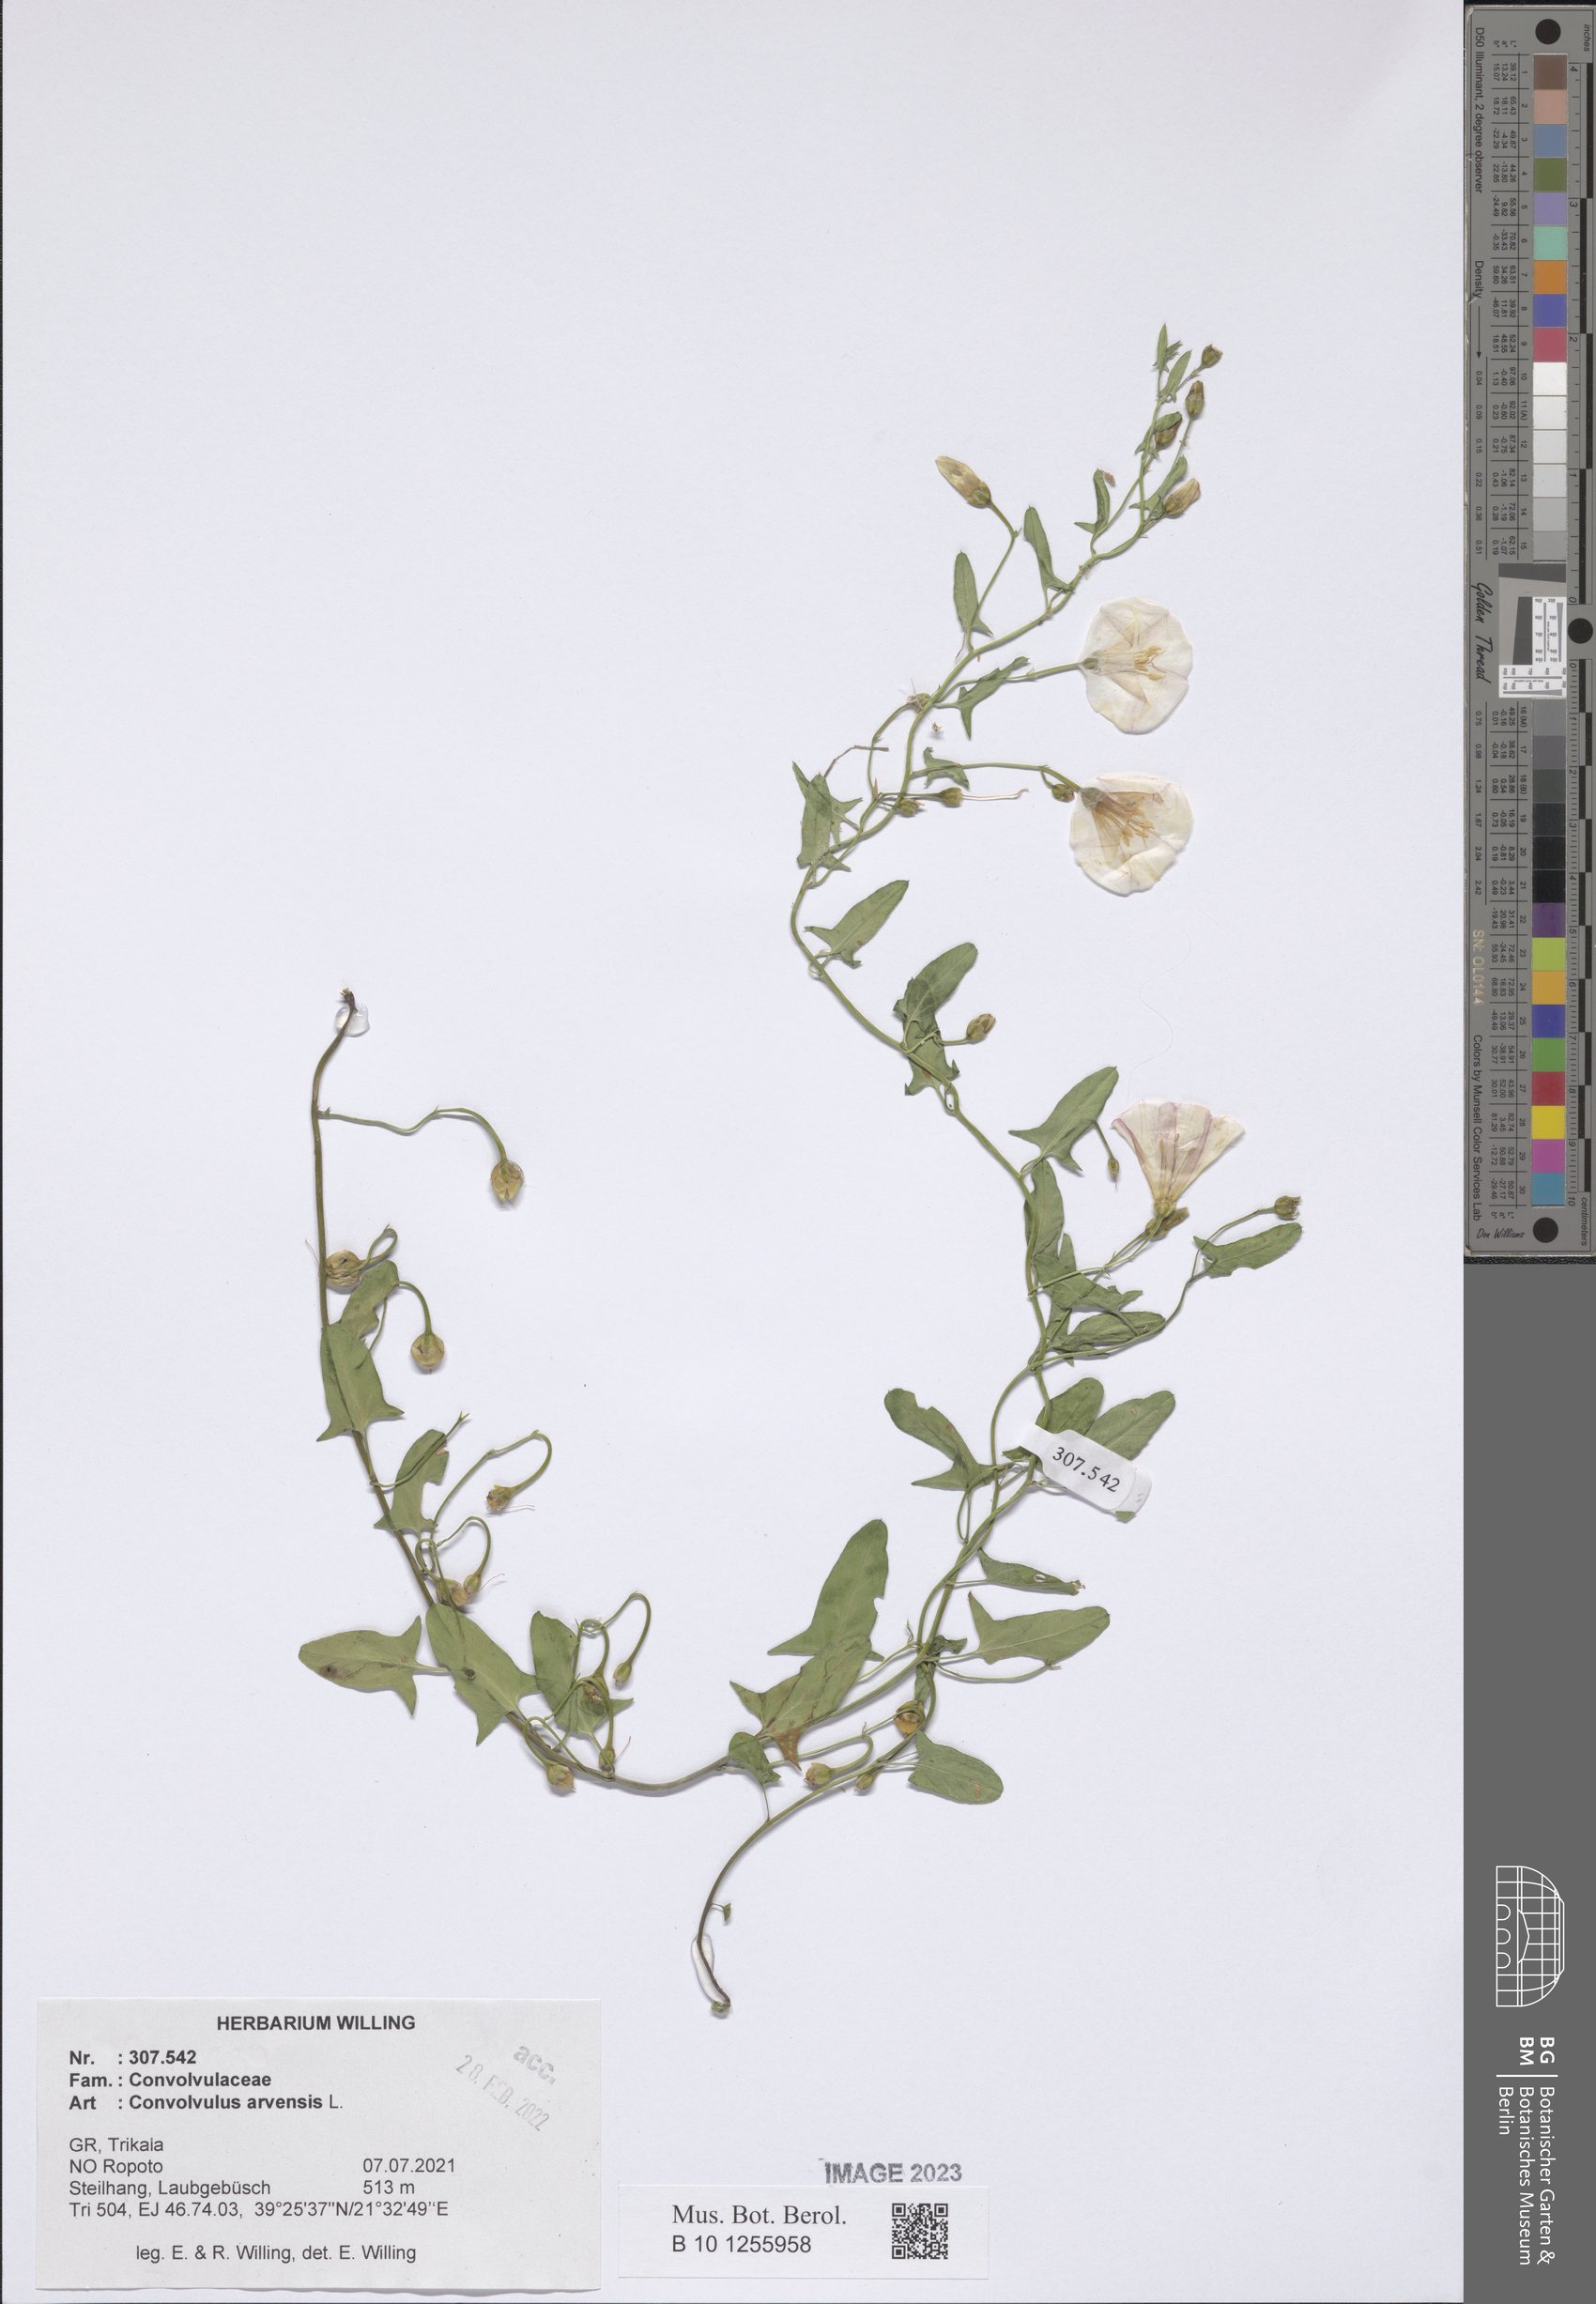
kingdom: Plantae
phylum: Tracheophyta
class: Magnoliopsida
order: Solanales
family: Convolvulaceae
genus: Convolvulus
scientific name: Convolvulus arvensis
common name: Field bindweed
